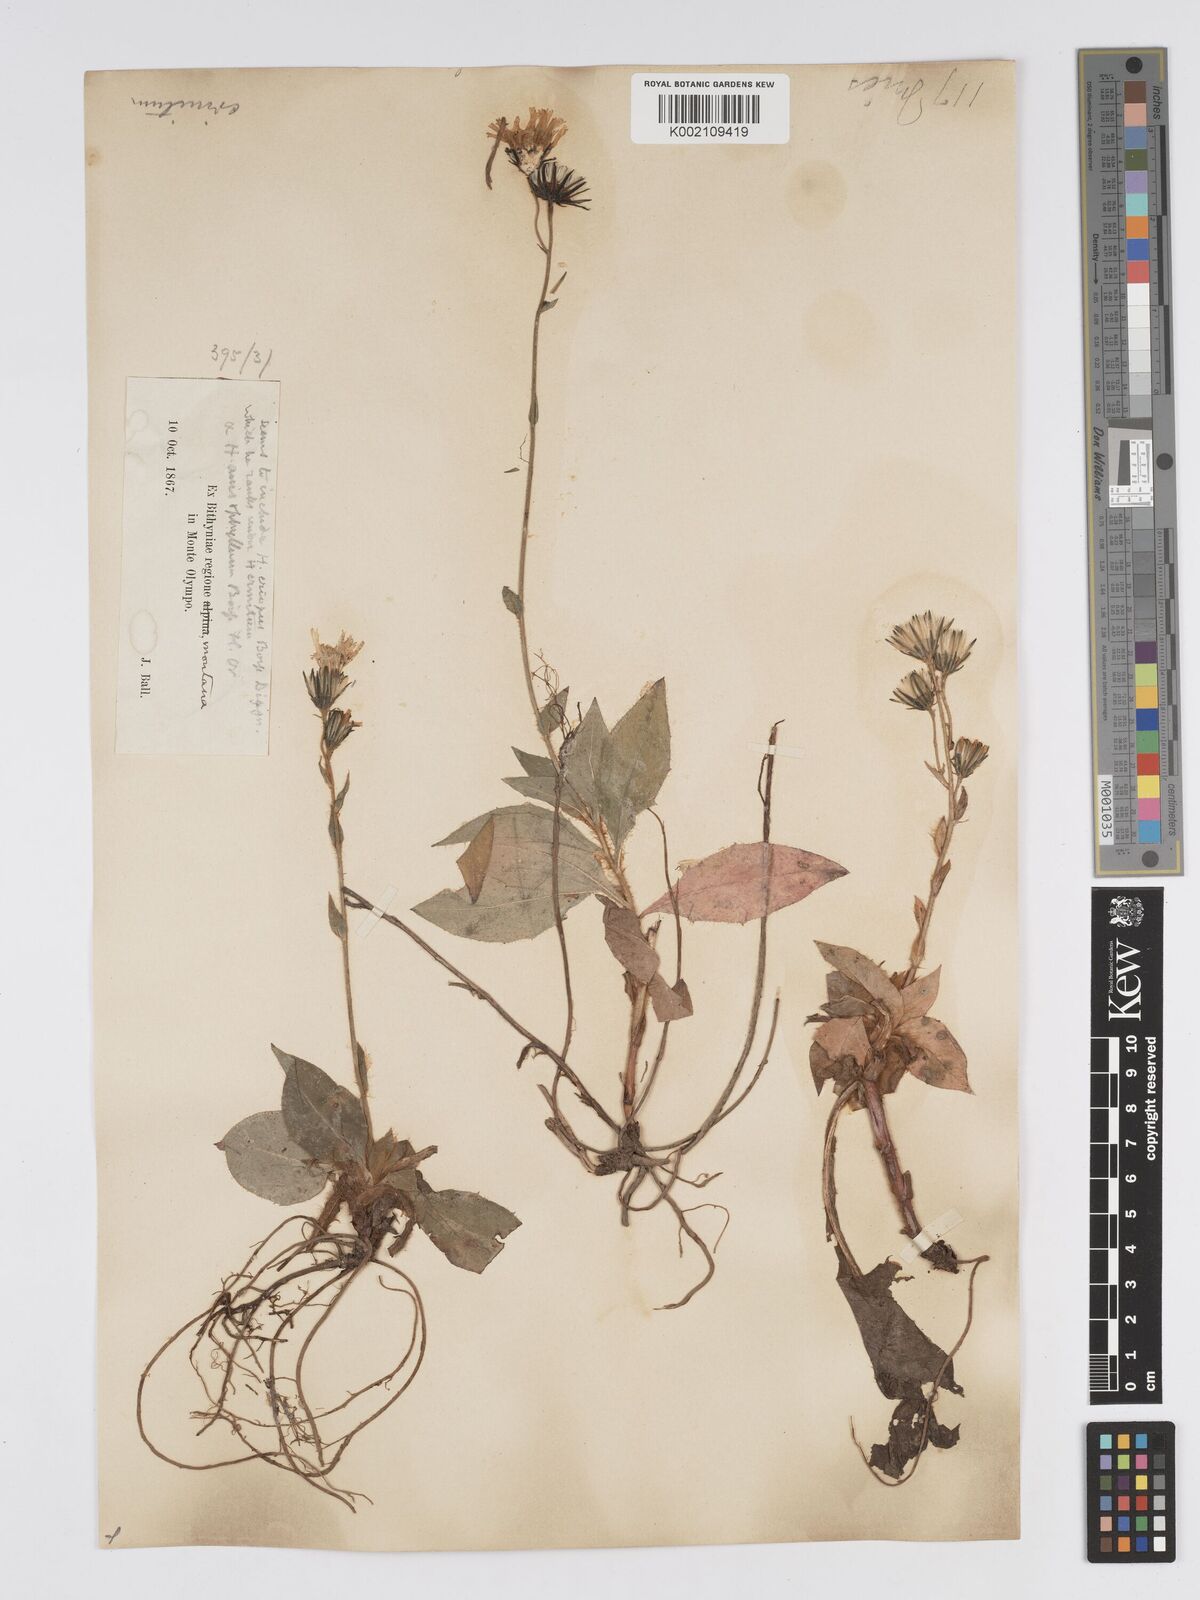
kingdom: Plantae
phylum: Tracheophyta
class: Magnoliopsida
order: Asterales
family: Asteraceae
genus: Hieracium
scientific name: Hieracium racemosum
